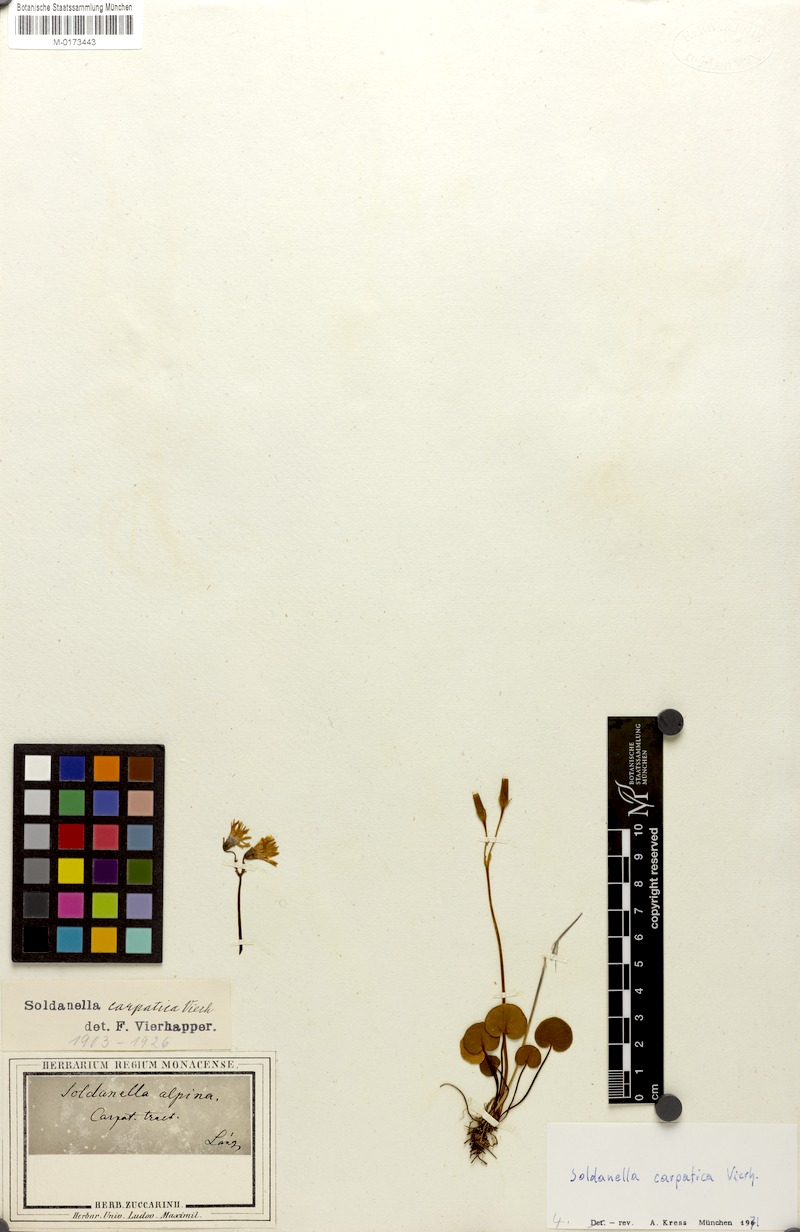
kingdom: Plantae
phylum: Tracheophyta
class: Magnoliopsida
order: Ericales
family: Primulaceae
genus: Soldanella
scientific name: Soldanella carpatica
